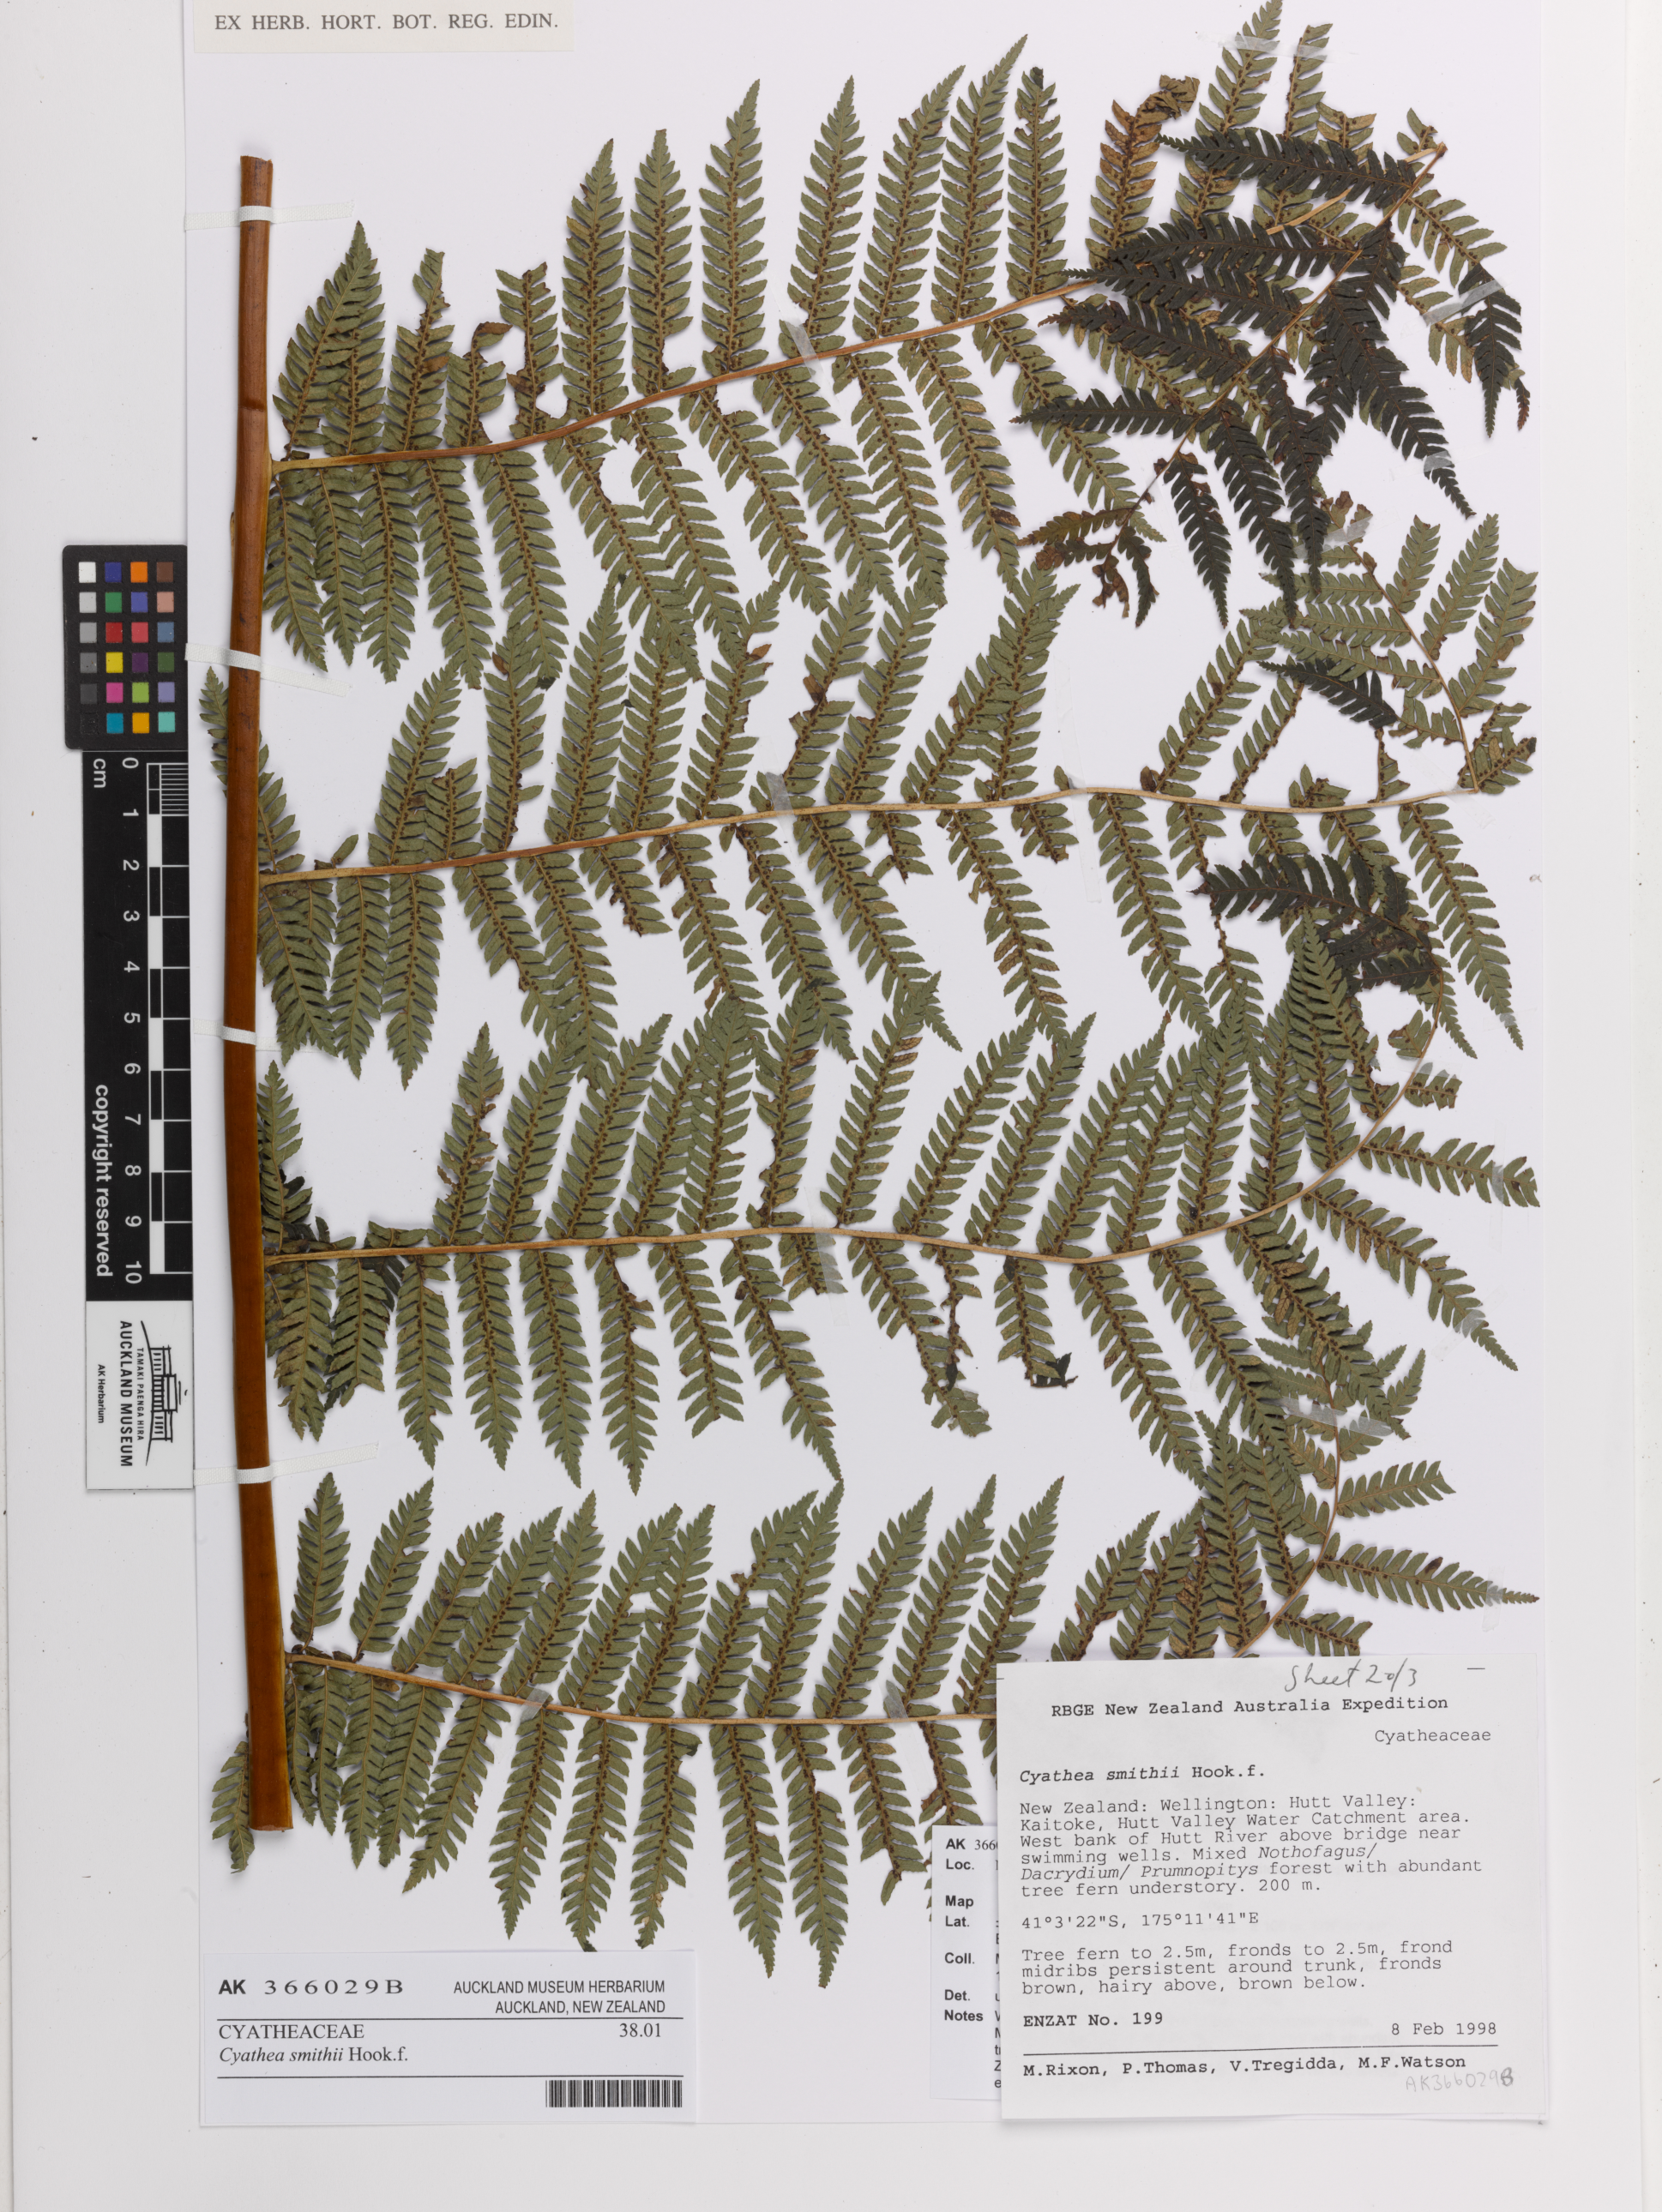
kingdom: Plantae
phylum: Tracheophyta
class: Polypodiopsida
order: Cyatheales
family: Cyatheaceae
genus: Alsophila
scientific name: Alsophila smithii
